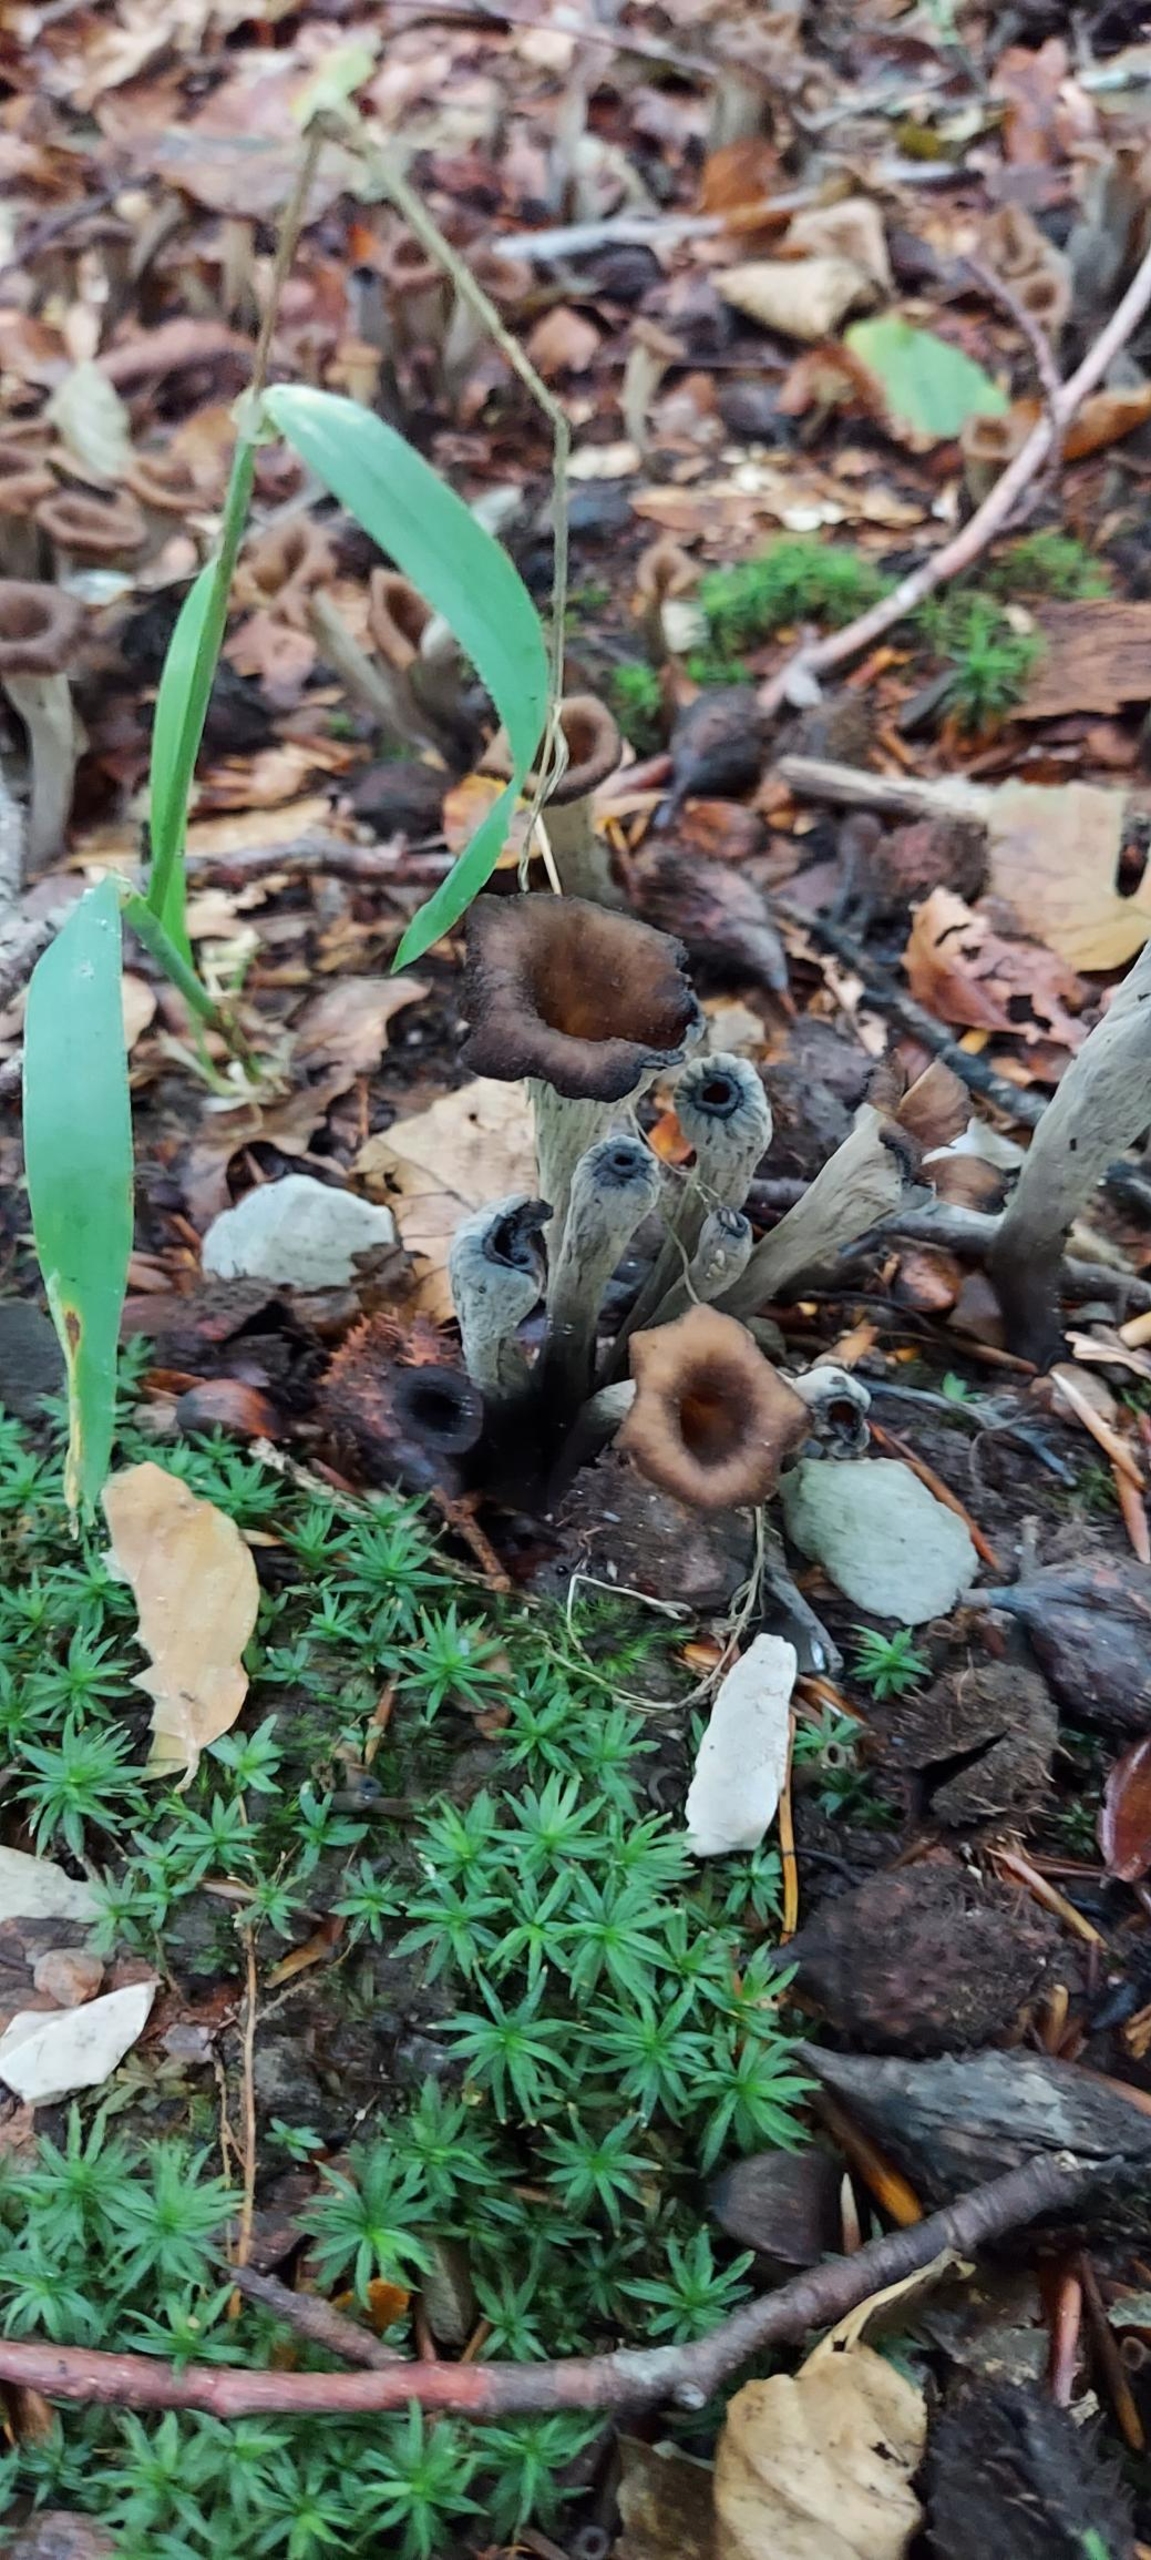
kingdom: Fungi
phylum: Basidiomycota
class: Agaricomycetes
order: Cantharellales
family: Hydnaceae
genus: Craterellus
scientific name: Craterellus cornucopioides
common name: Trompetsvamp
